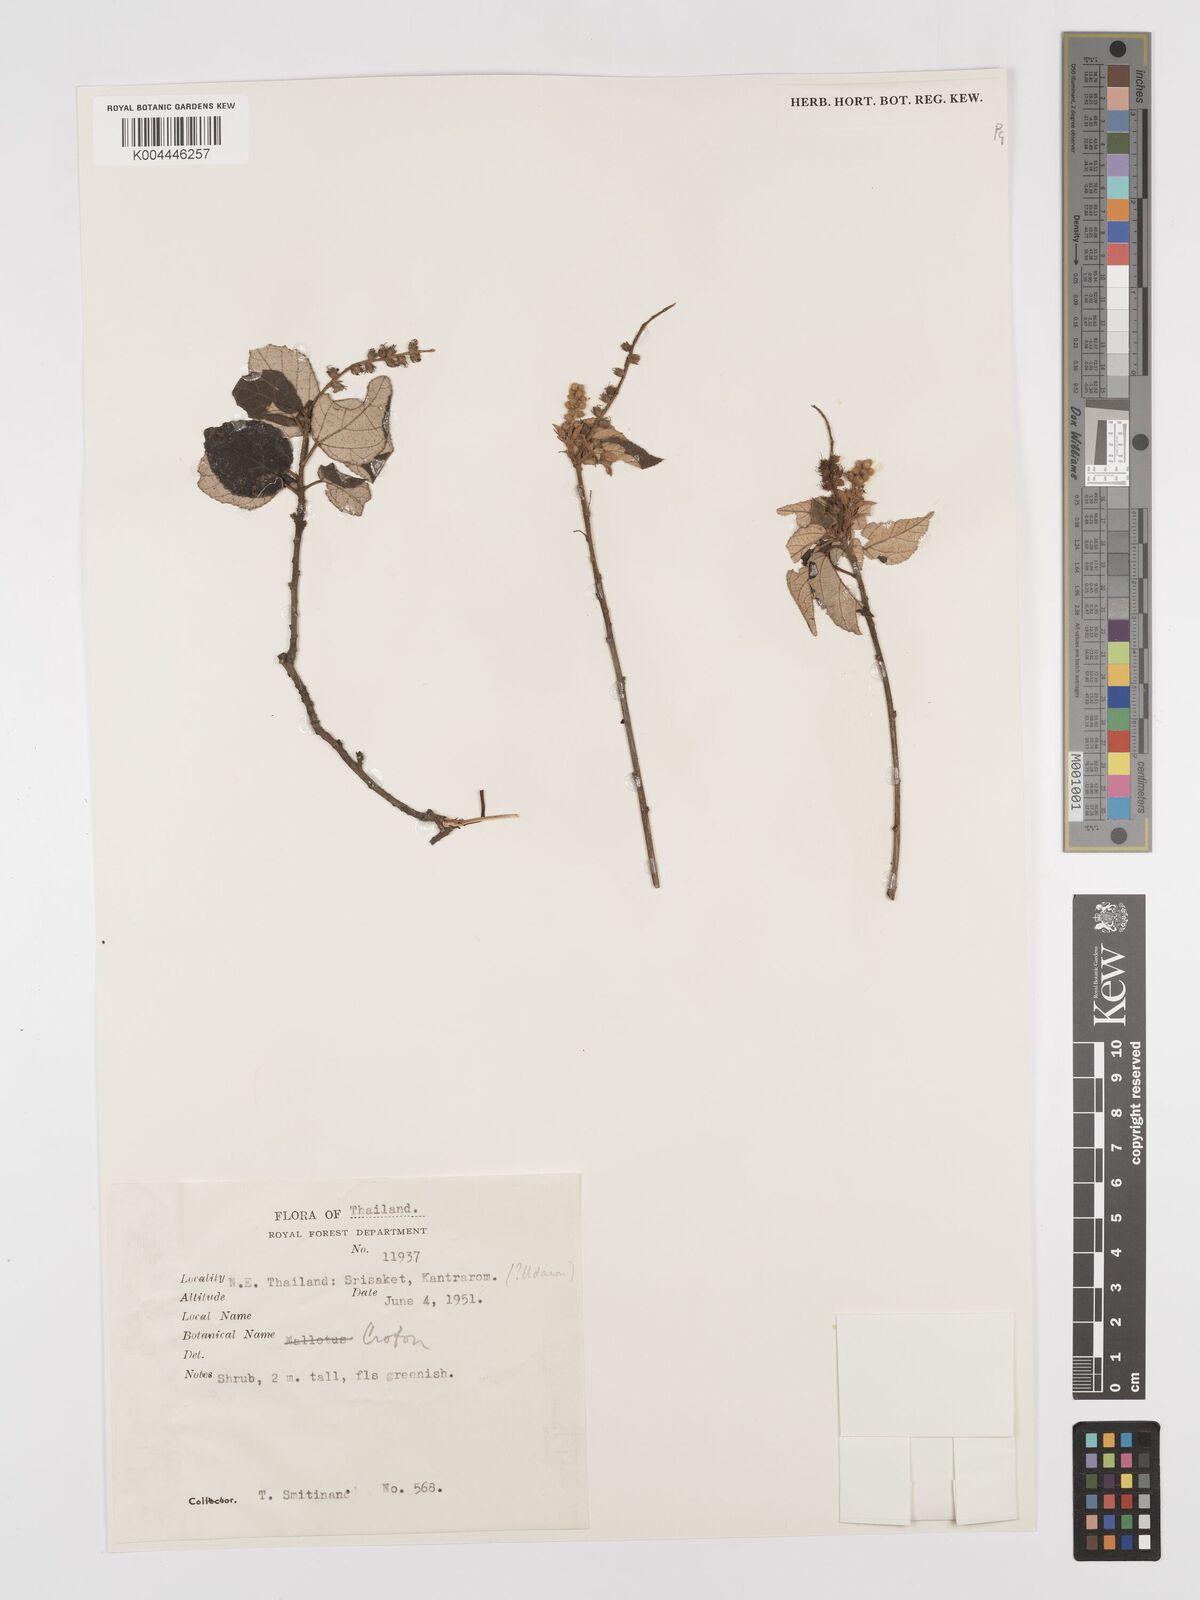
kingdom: Plantae
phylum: Tracheophyta
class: Magnoliopsida
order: Malpighiales
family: Euphorbiaceae
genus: Croton
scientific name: Croton krabas
